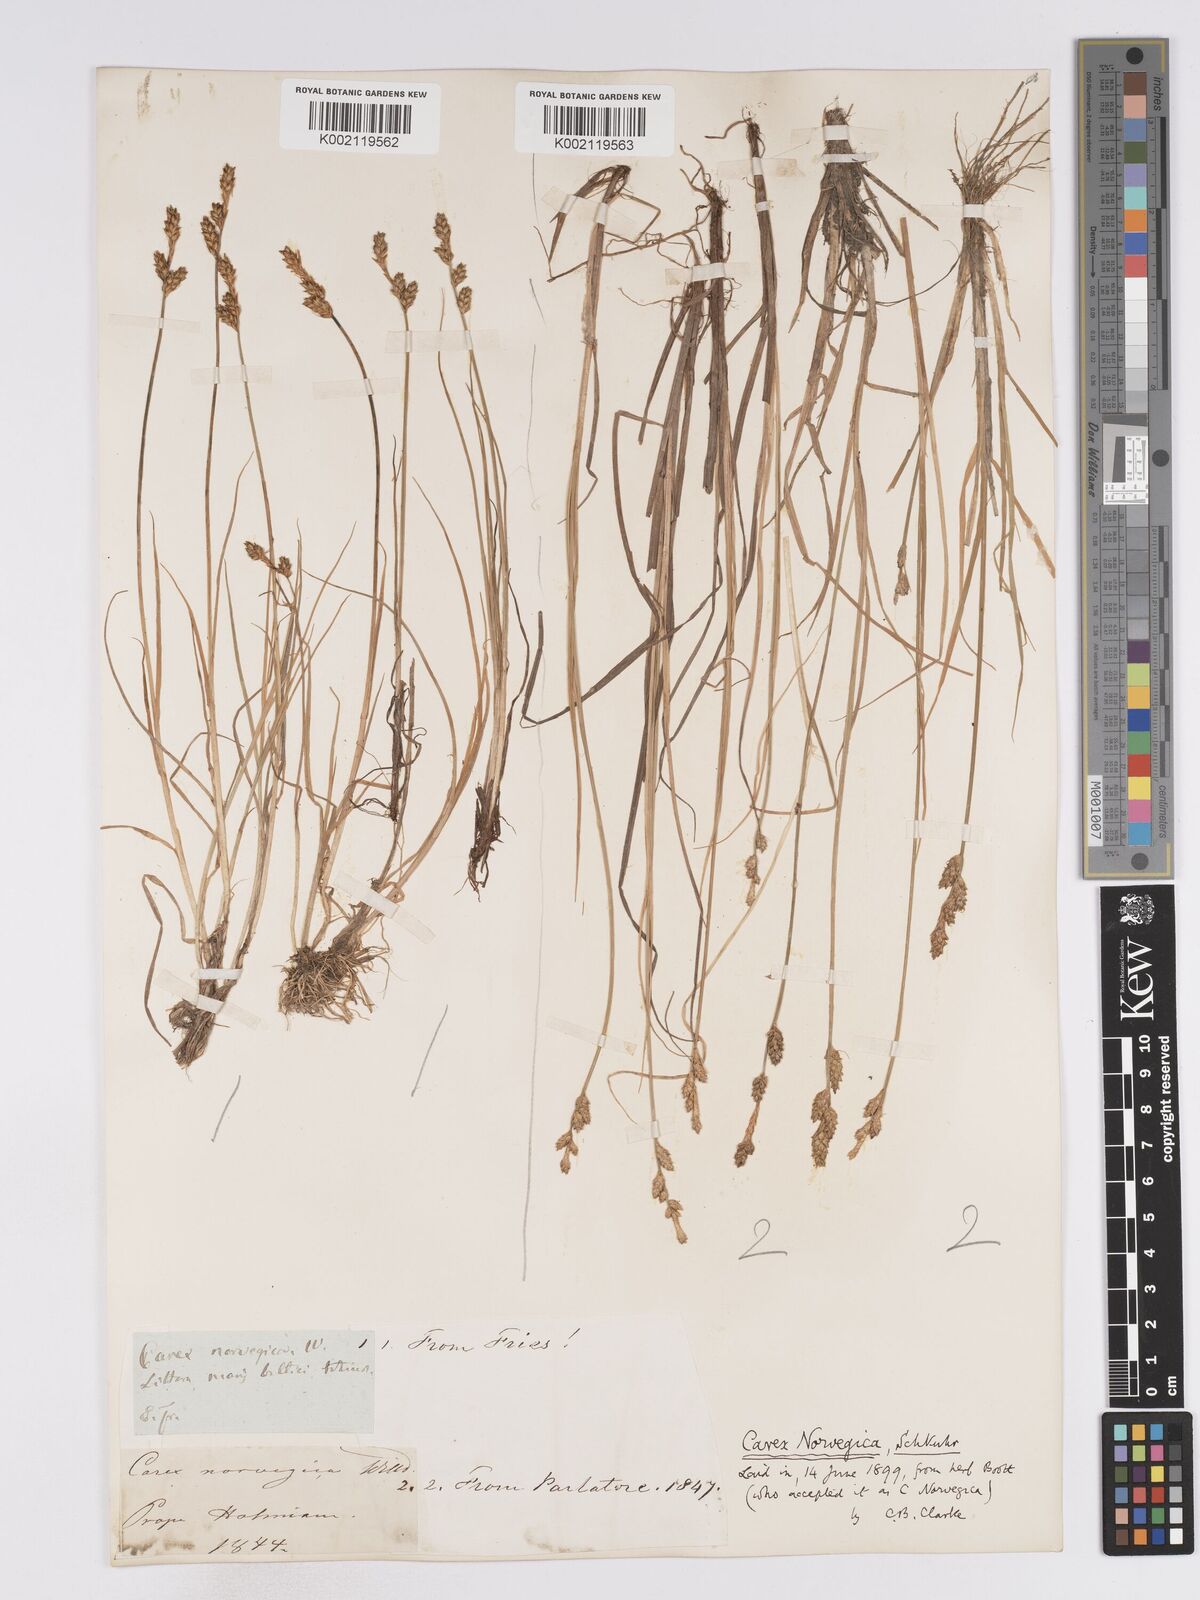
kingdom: Plantae
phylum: Tracheophyta
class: Liliopsida
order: Poales
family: Cyperaceae
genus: Carex
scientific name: Carex mackenziei
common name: Mackenzie's sedge
